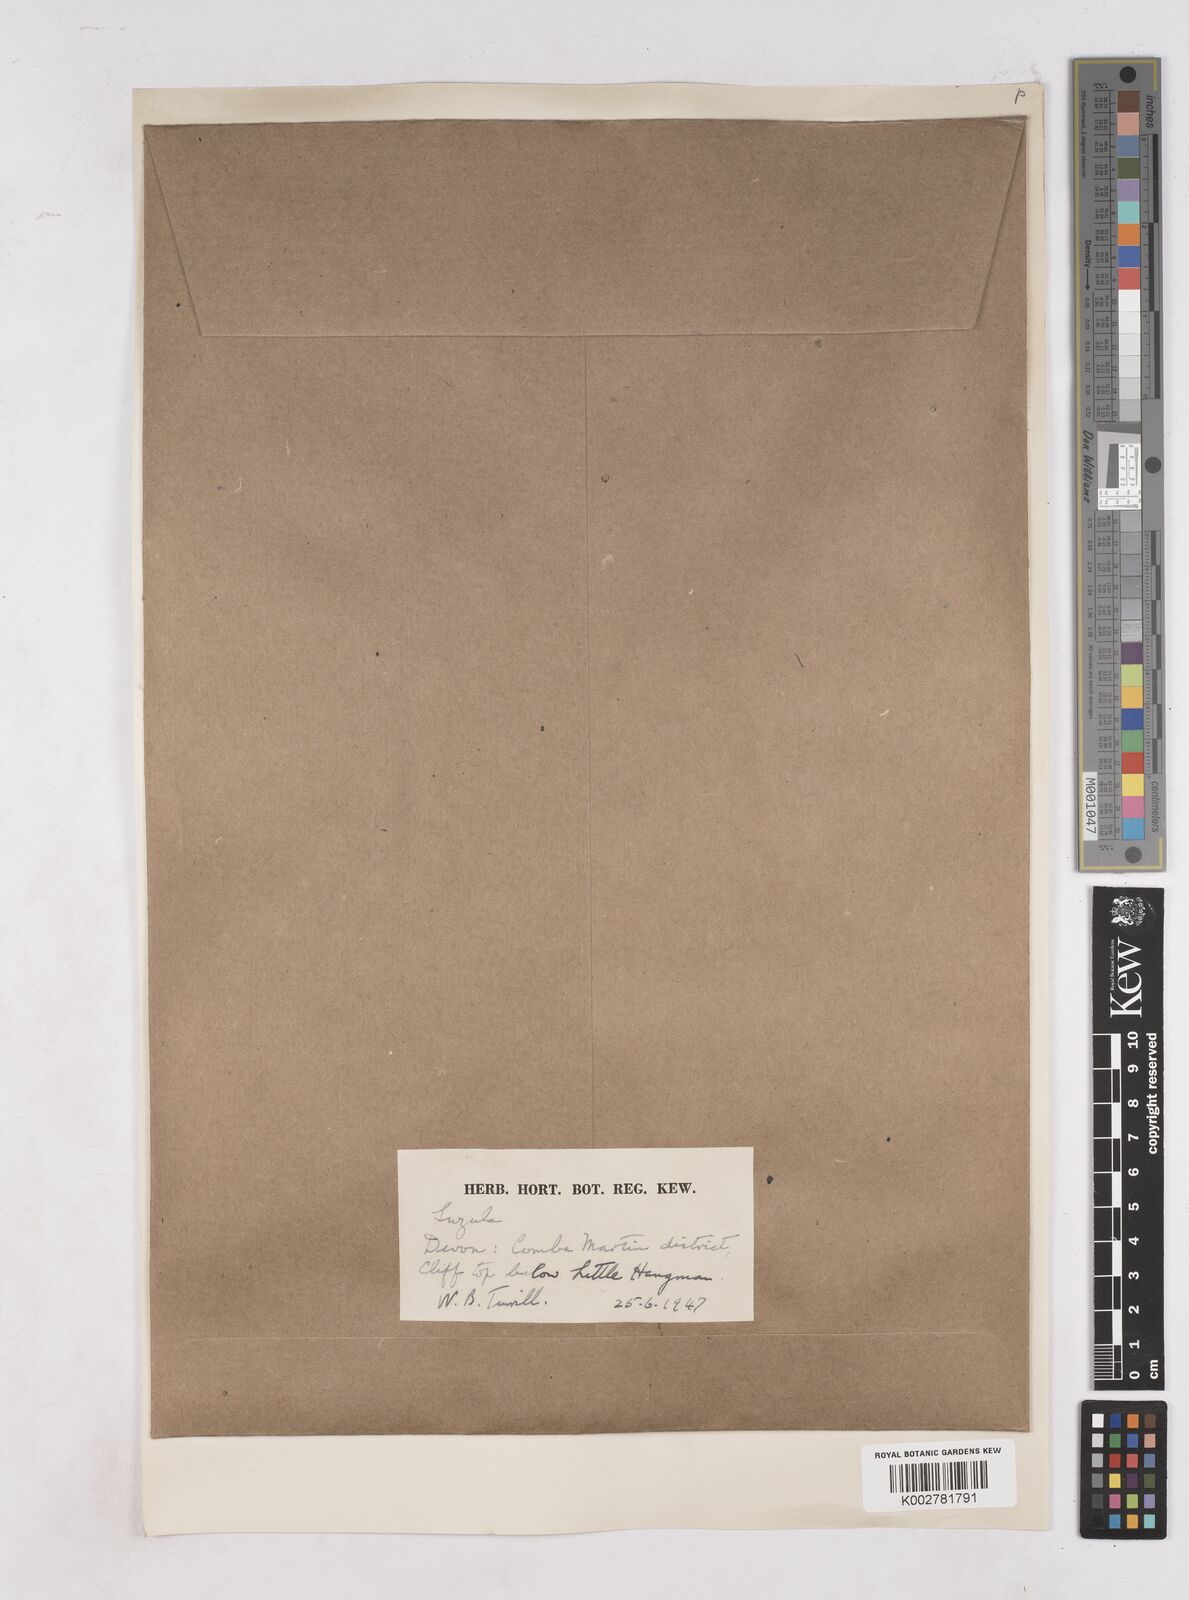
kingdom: Plantae
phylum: Tracheophyta
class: Liliopsida
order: Poales
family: Juncaceae
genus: Luzula
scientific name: Luzula
